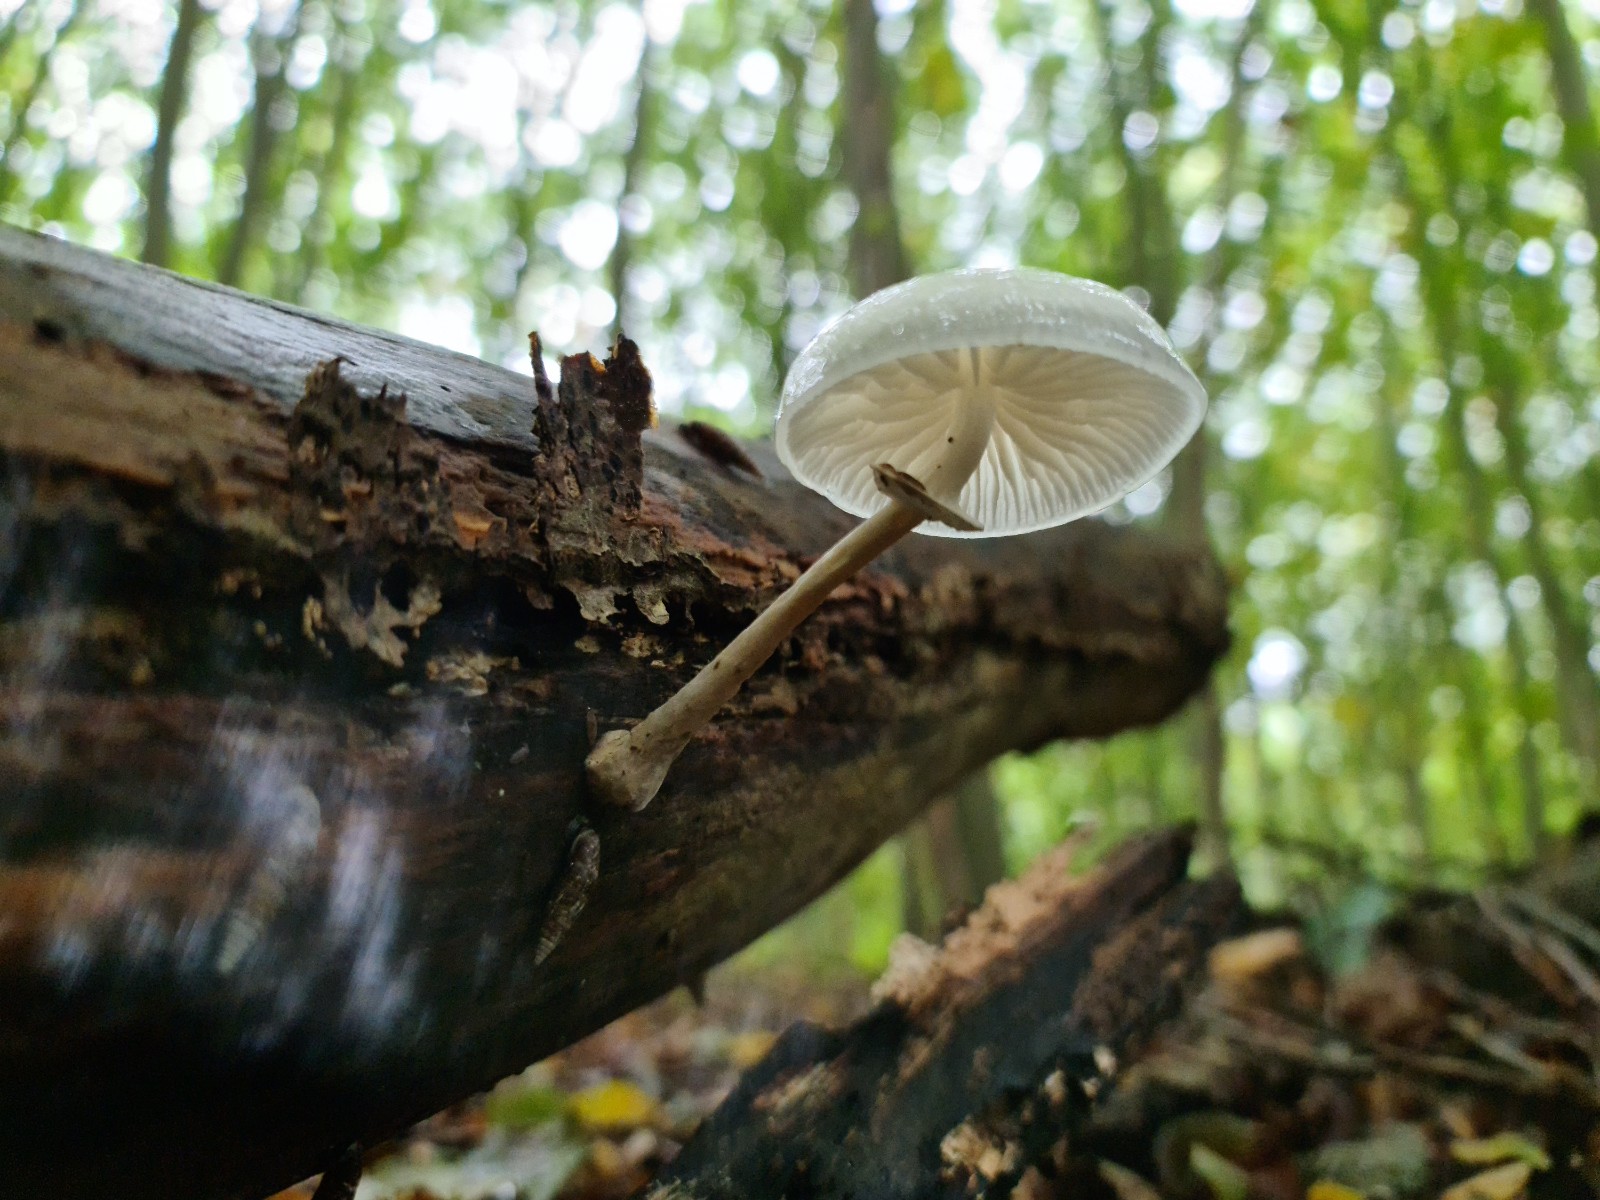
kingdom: Fungi
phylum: Basidiomycota
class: Agaricomycetes
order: Agaricales
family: Physalacriaceae
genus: Mucidula
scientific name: Mucidula mucida
